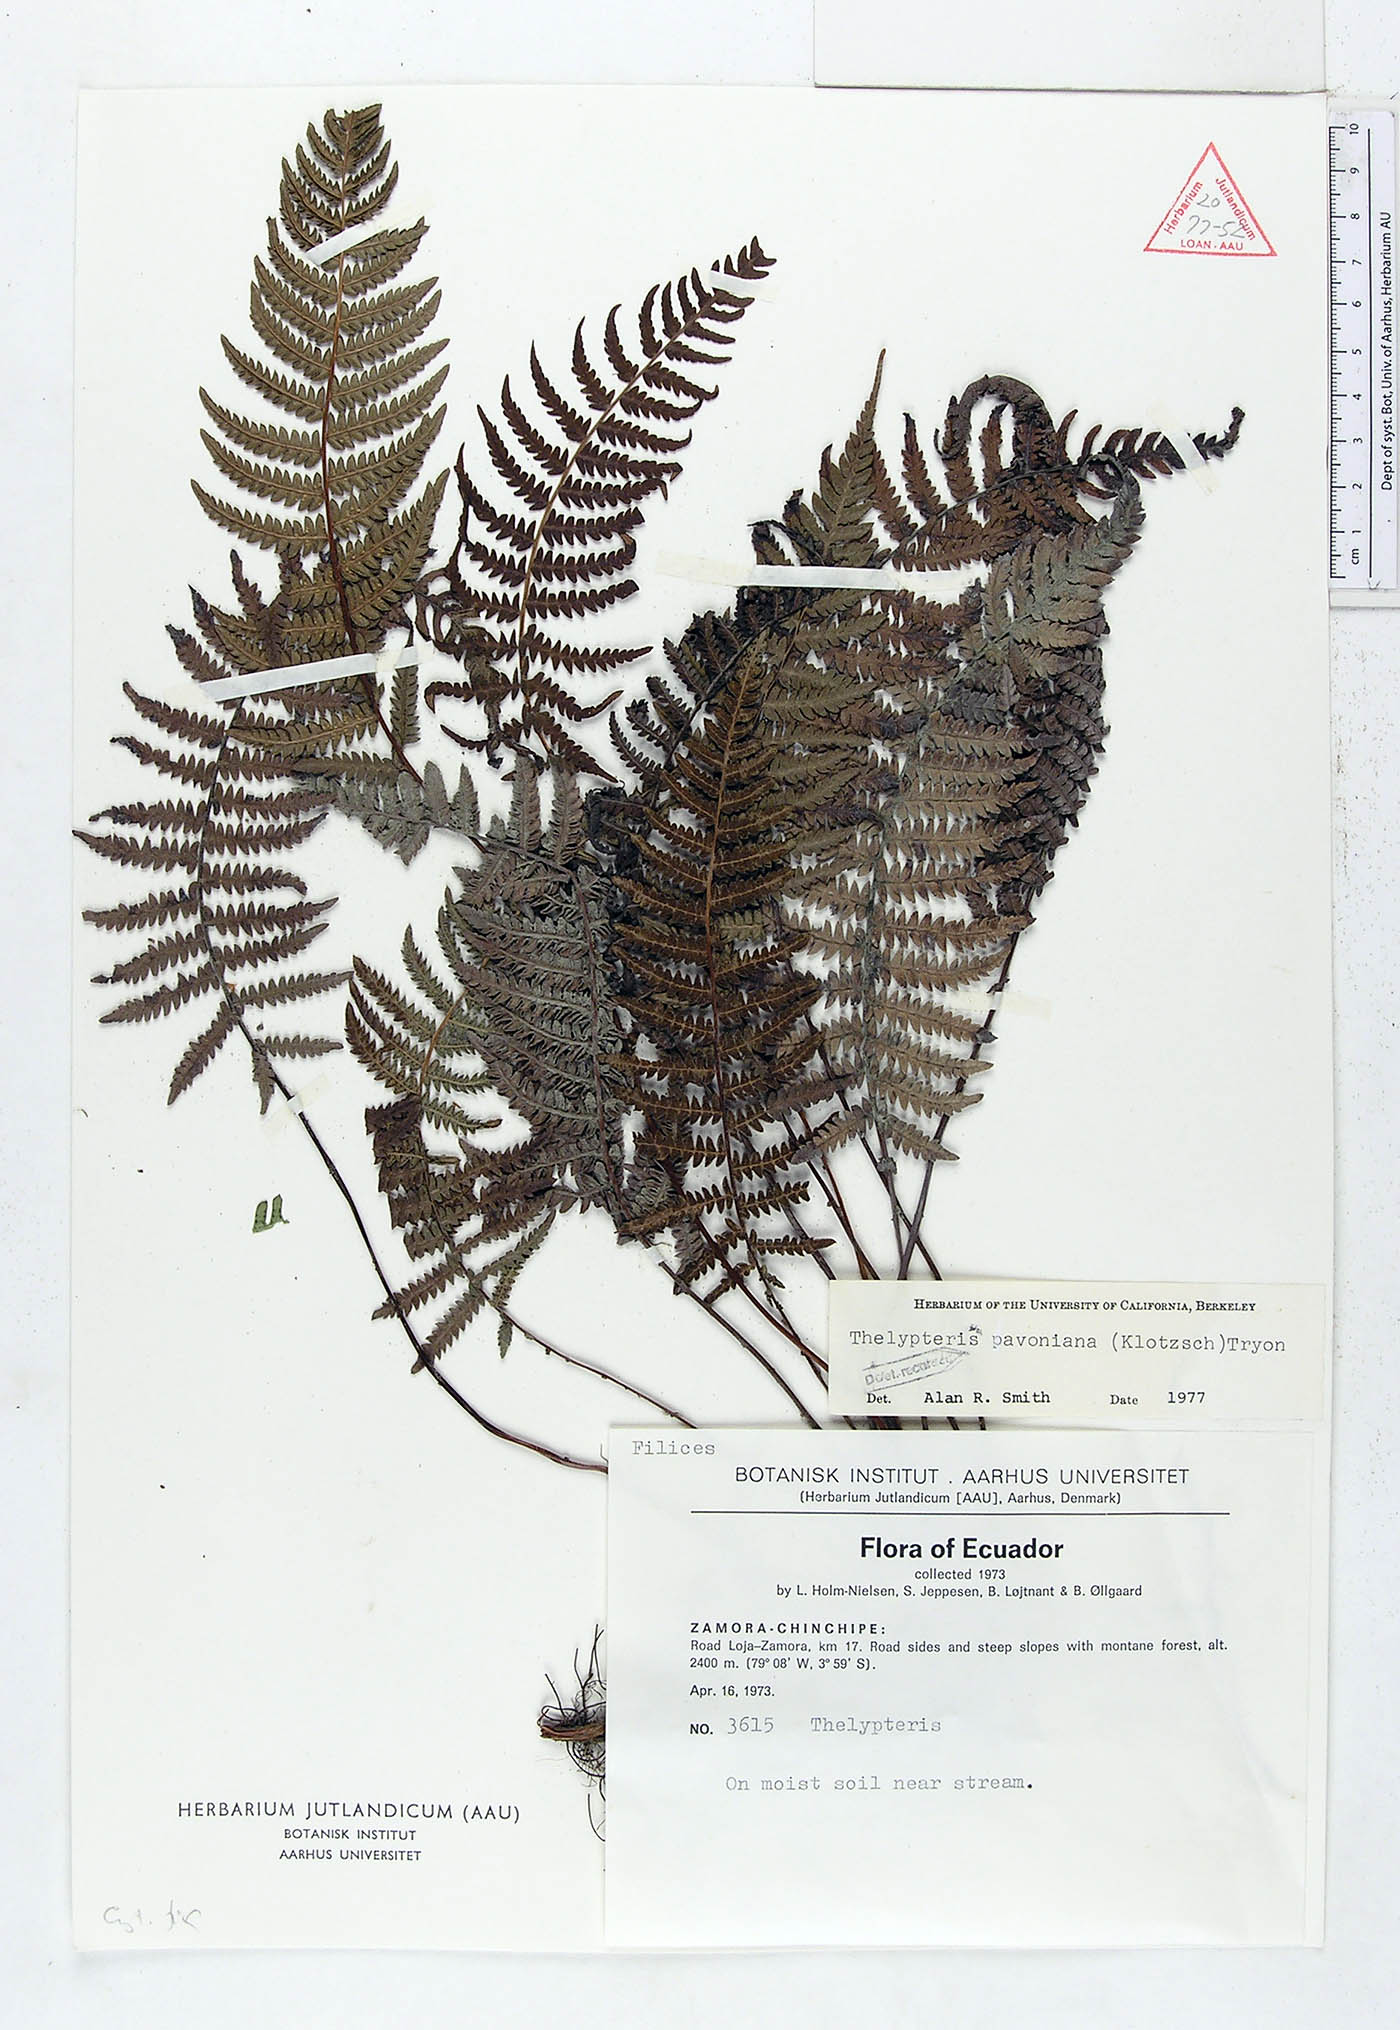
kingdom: Plantae
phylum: Tracheophyta
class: Polypodiopsida
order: Polypodiales
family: Thelypteridaceae
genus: Amauropelta
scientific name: Amauropelta pavoniana
